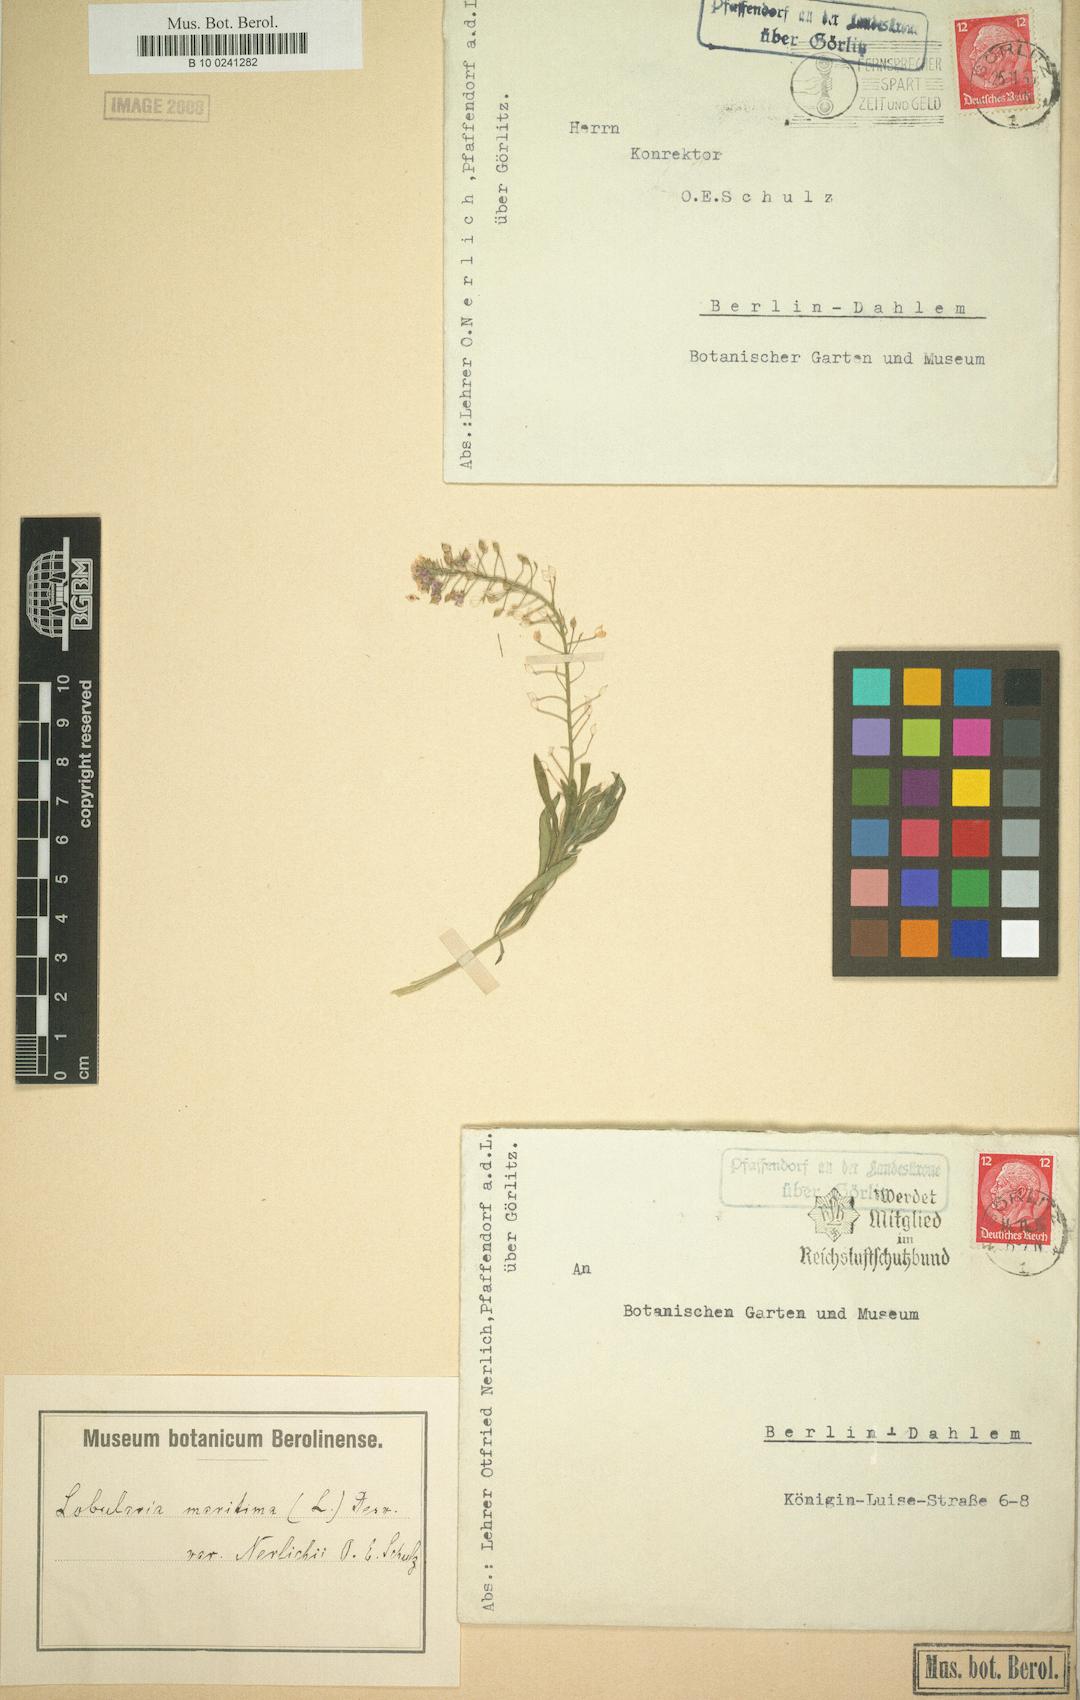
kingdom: Plantae
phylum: Tracheophyta
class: Magnoliopsida
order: Brassicales
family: Brassicaceae
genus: Lobularia
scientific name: Lobularia maritima
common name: Sweet alison
